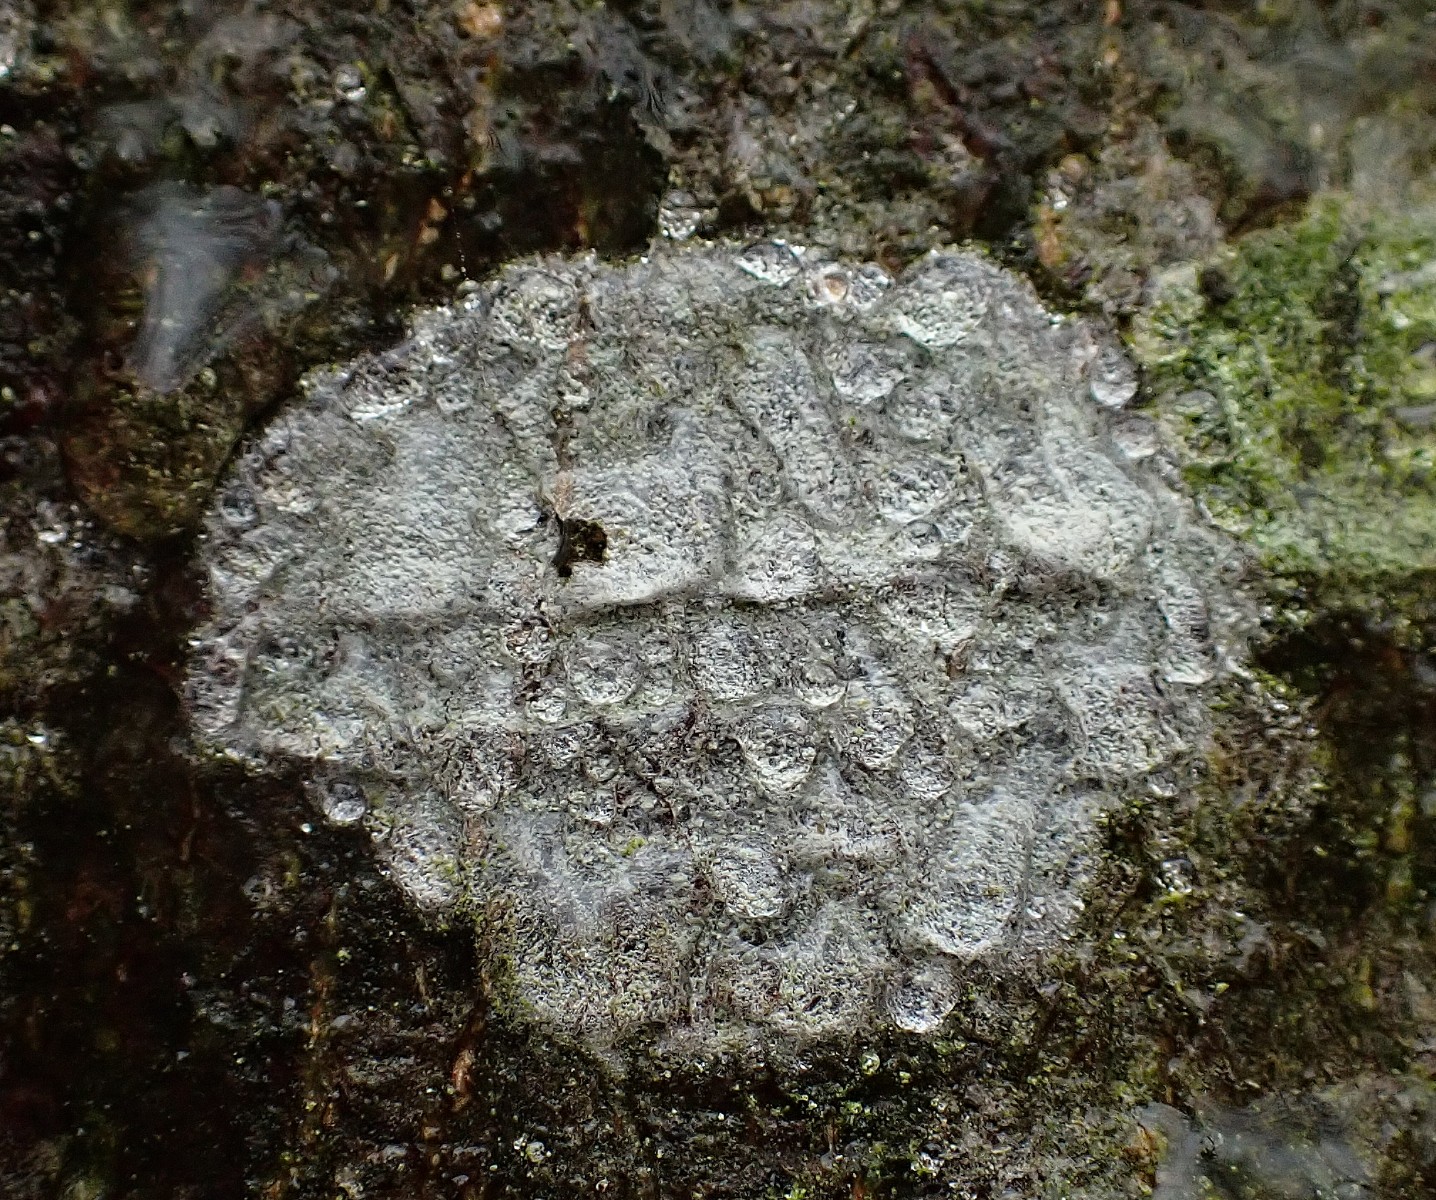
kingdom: Fungi
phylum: Ascomycota
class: Lecanoromycetes
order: Ostropales
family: Phlyctidaceae
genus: Phlyctis
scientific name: Phlyctis argena
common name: almindelig sølvlav
